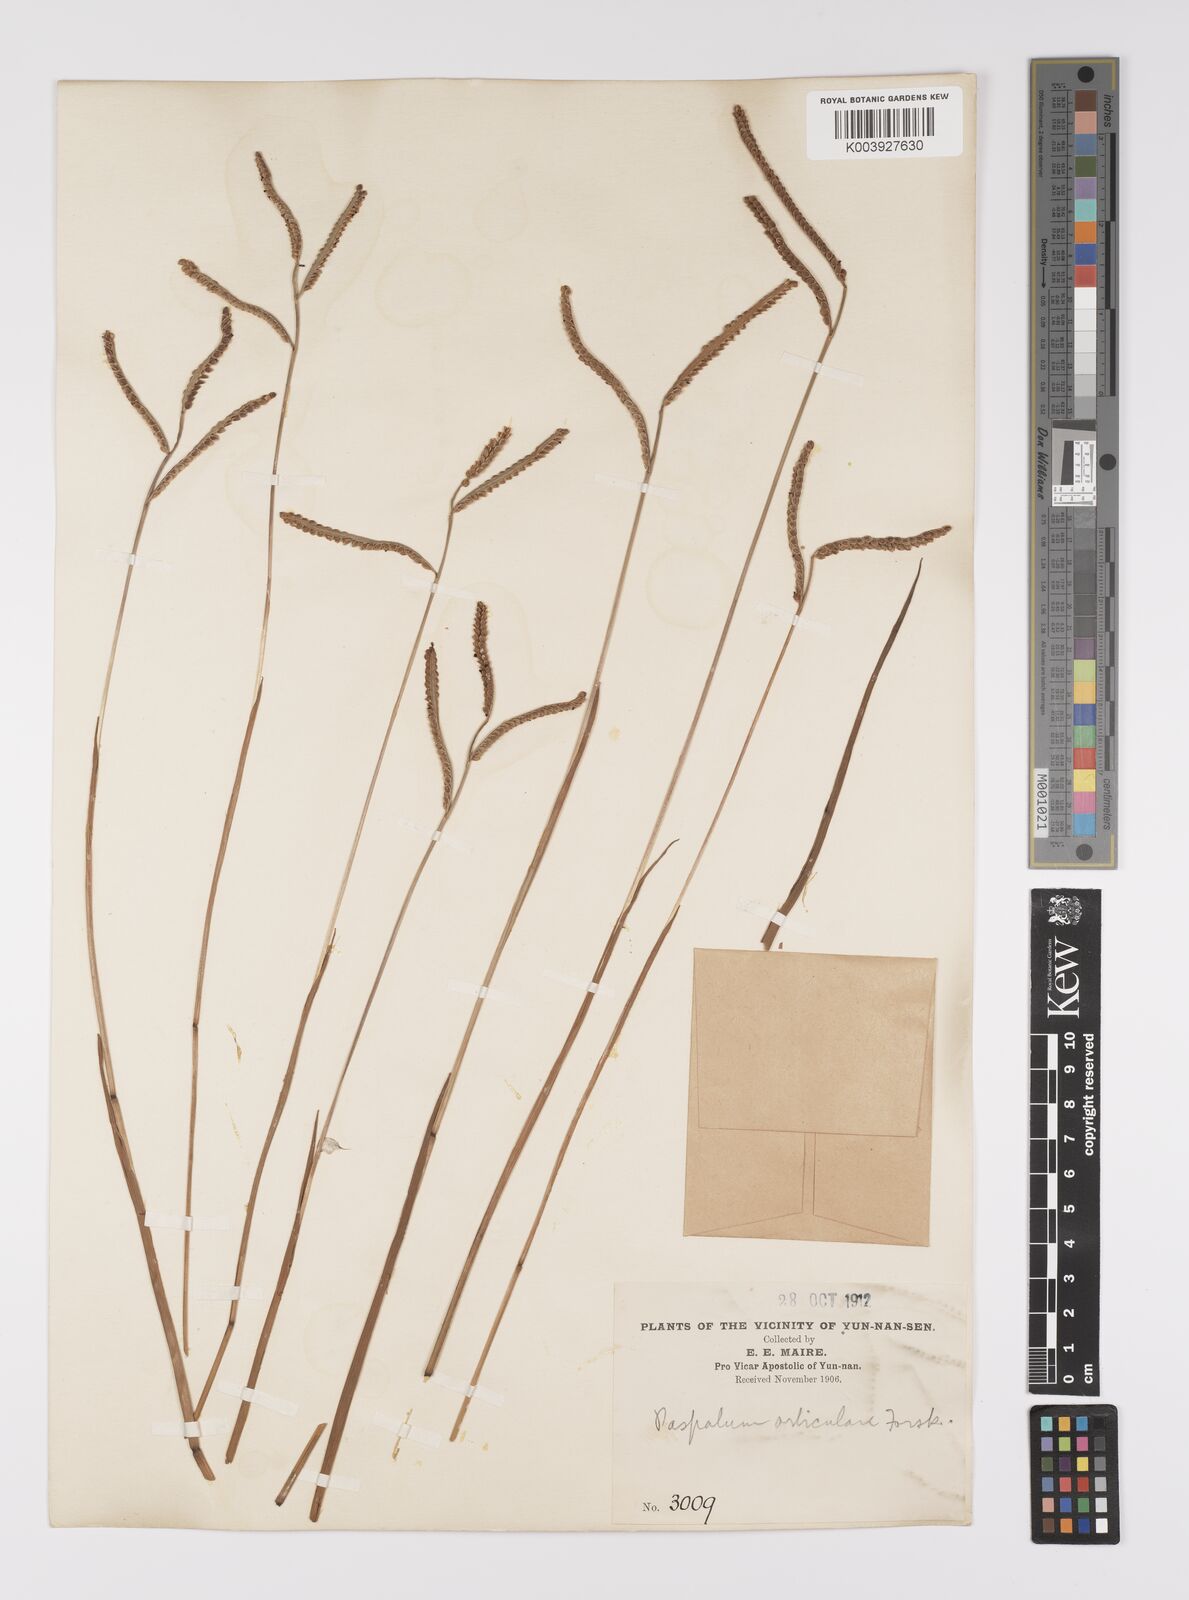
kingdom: Plantae
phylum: Tracheophyta
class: Liliopsida
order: Poales
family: Poaceae
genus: Paspalum
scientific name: Paspalum orbiculare
